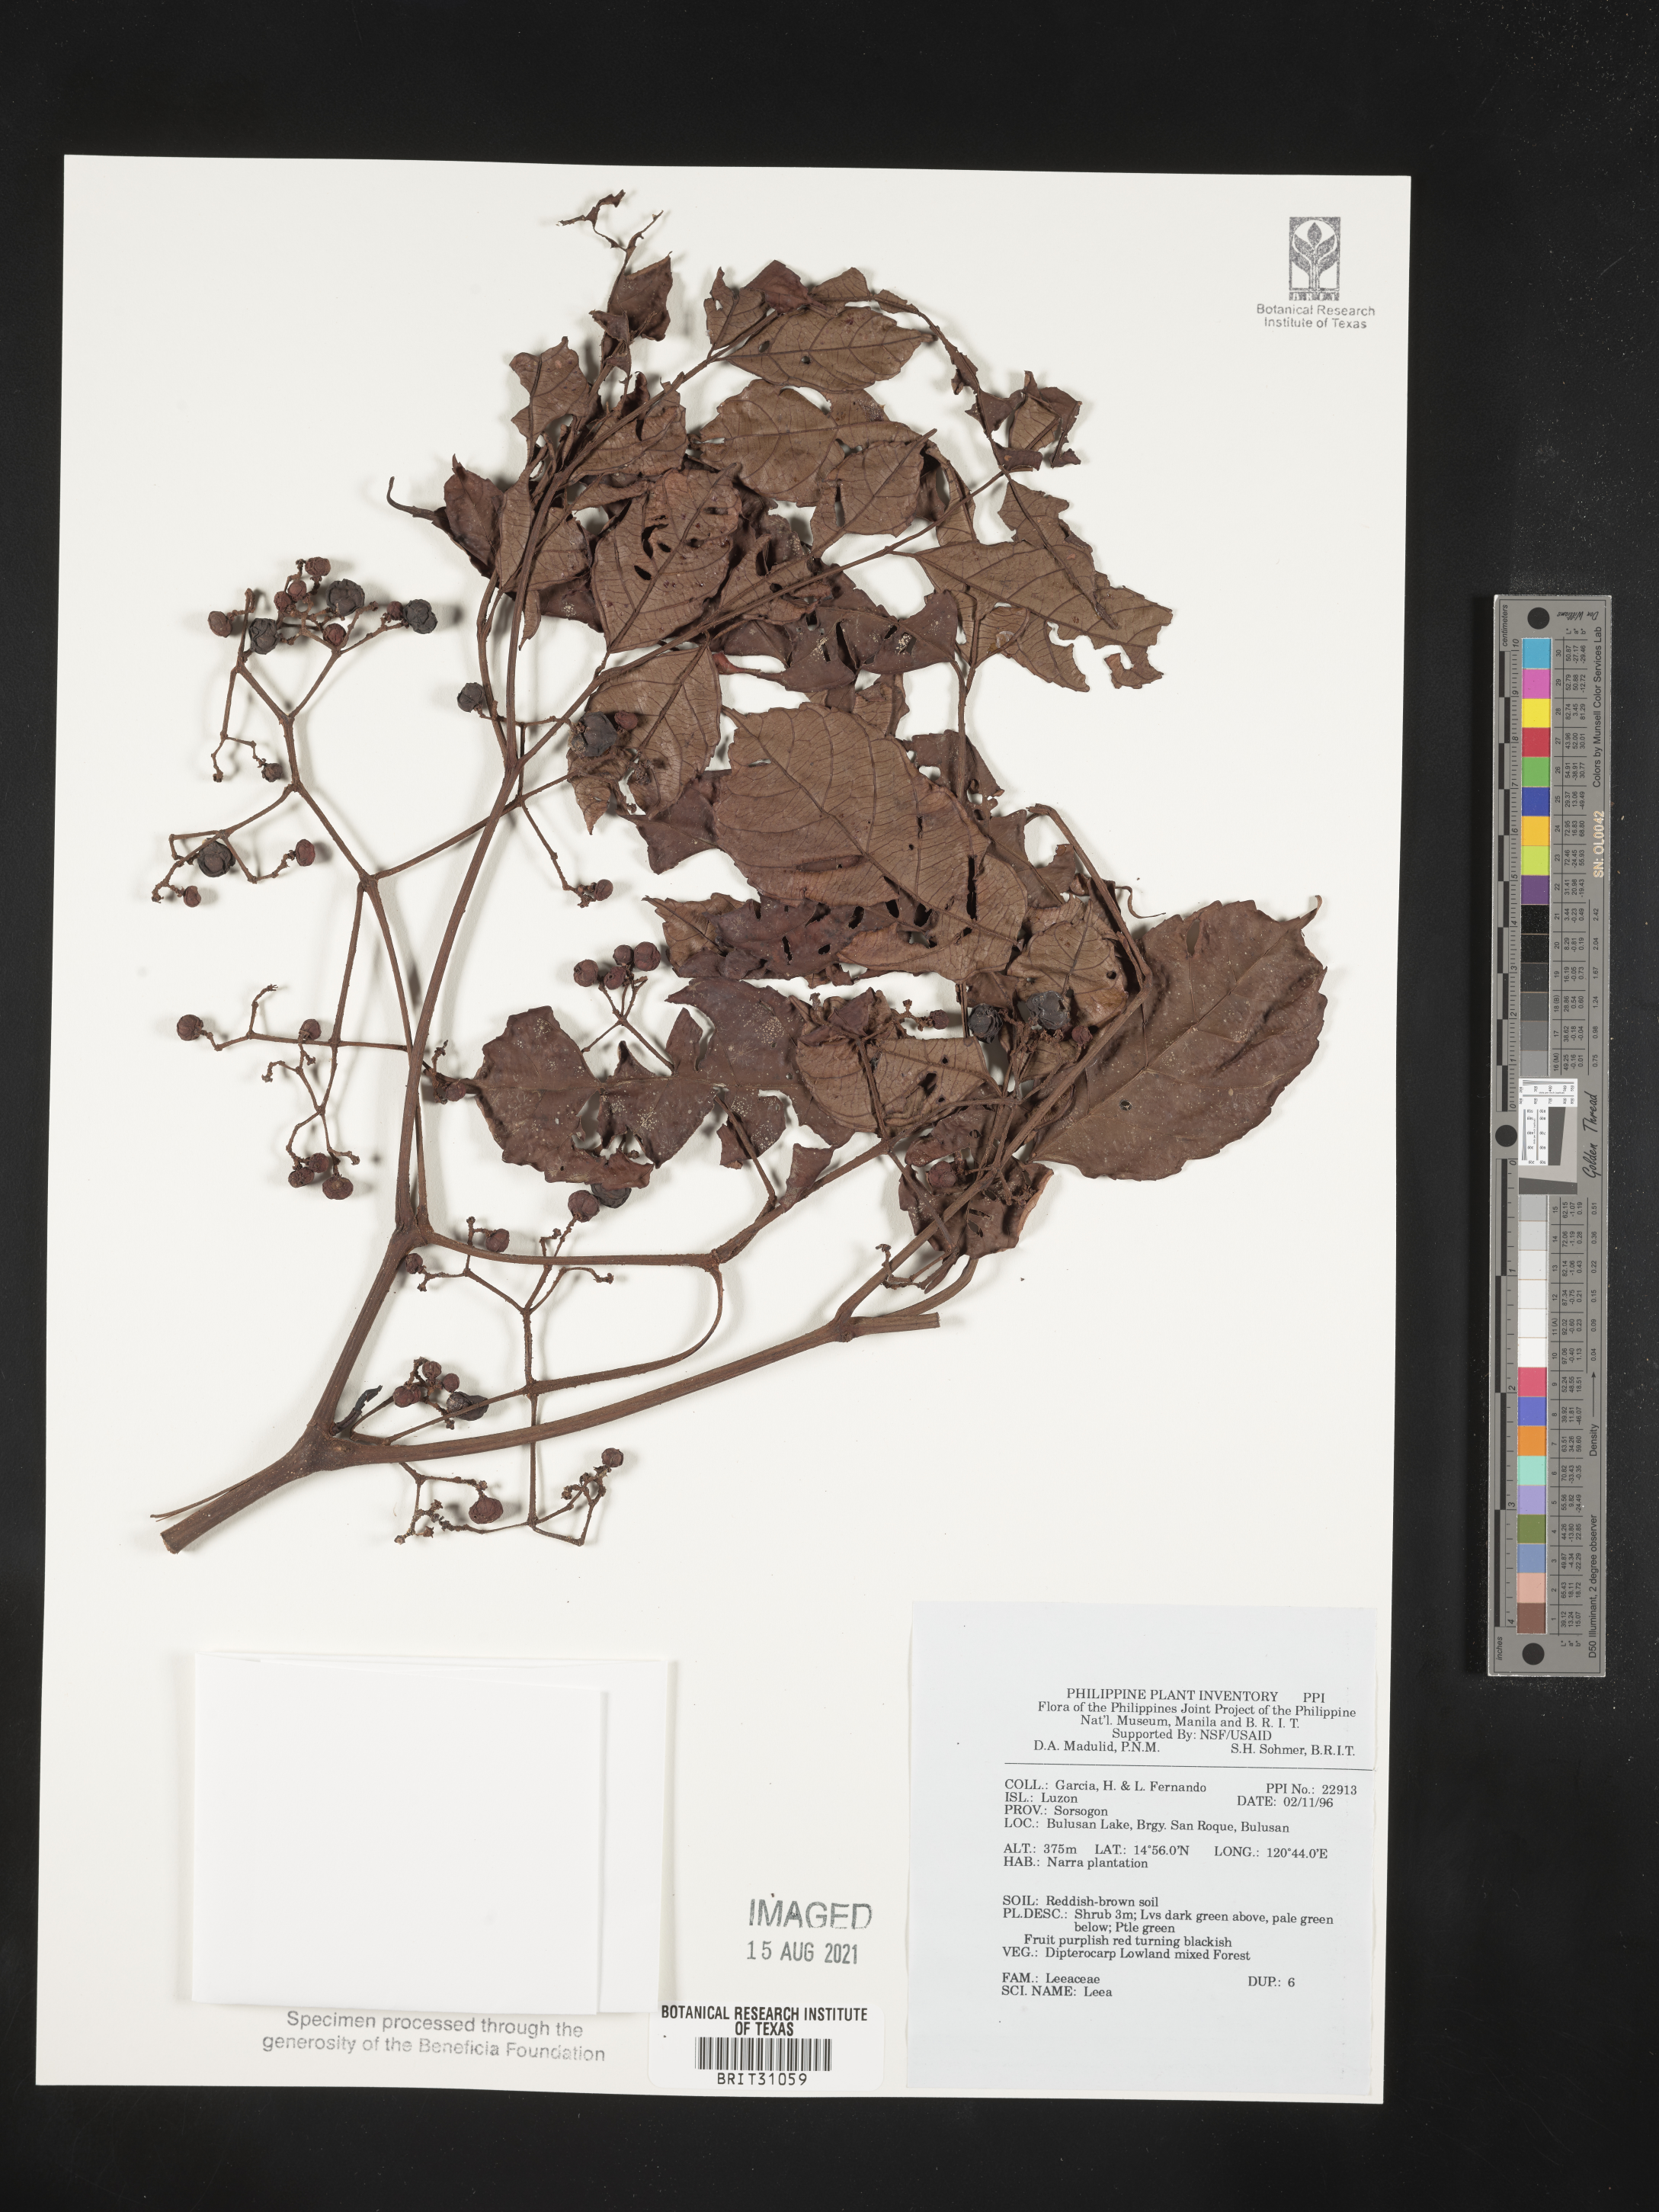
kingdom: Plantae
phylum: Tracheophyta
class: Magnoliopsida
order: Vitales
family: Vitaceae
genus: Leea
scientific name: Leea
